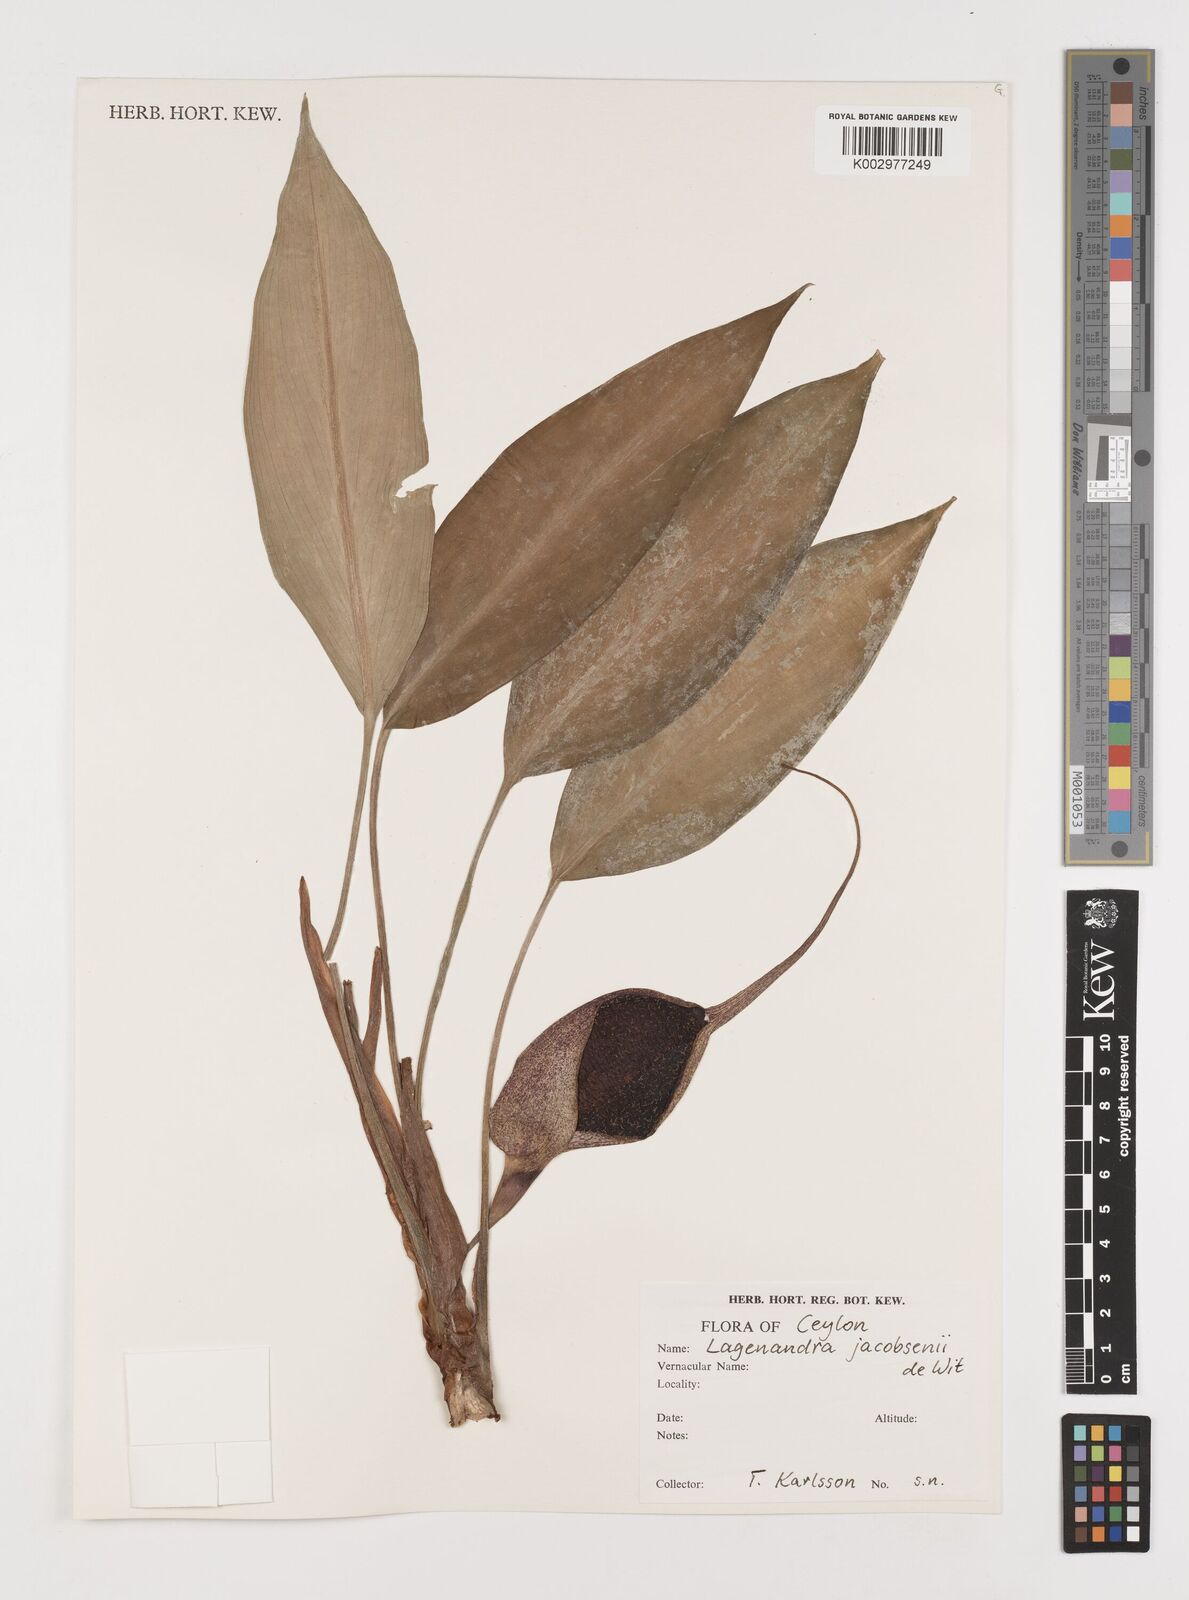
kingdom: Plantae
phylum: Tracheophyta
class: Liliopsida
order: Alismatales
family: Araceae
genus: Lagenandra
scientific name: Lagenandra jacobsenii
